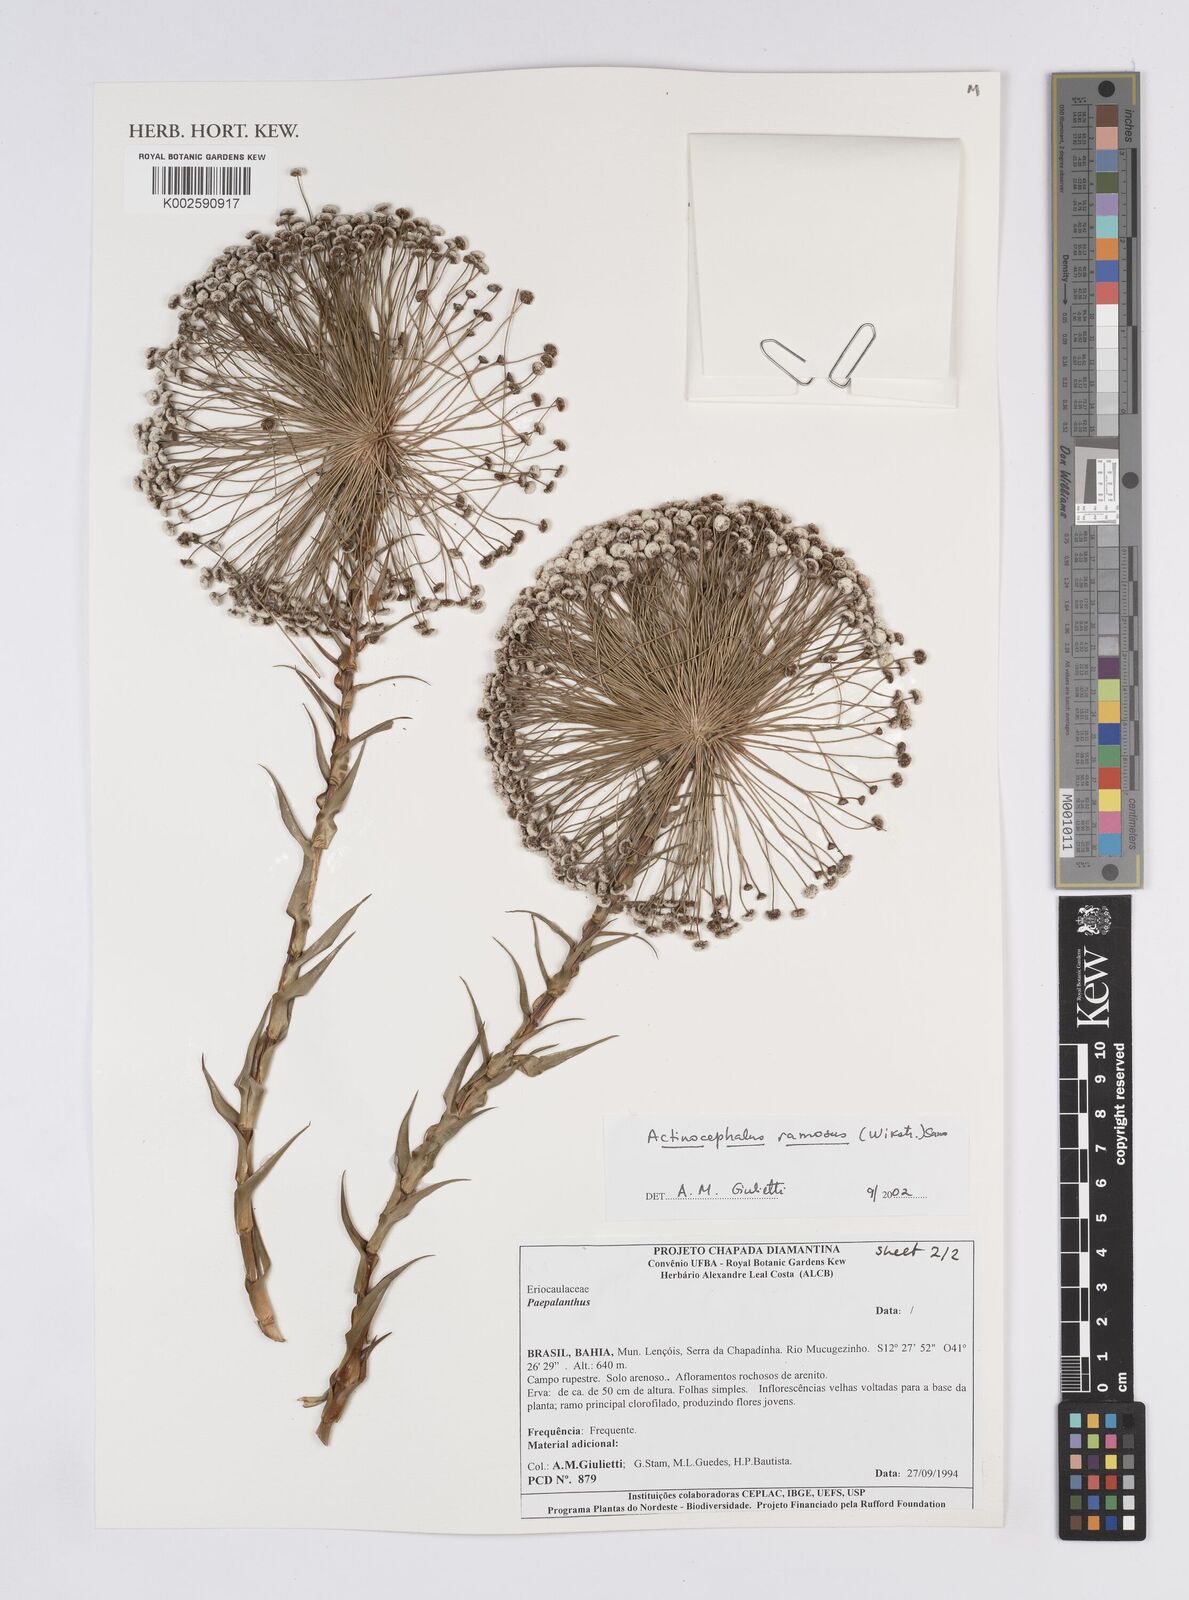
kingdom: Plantae
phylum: Tracheophyta
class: Liliopsida
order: Poales
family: Eriocaulaceae
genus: Paepalanthus
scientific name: Paepalanthus ramosus
